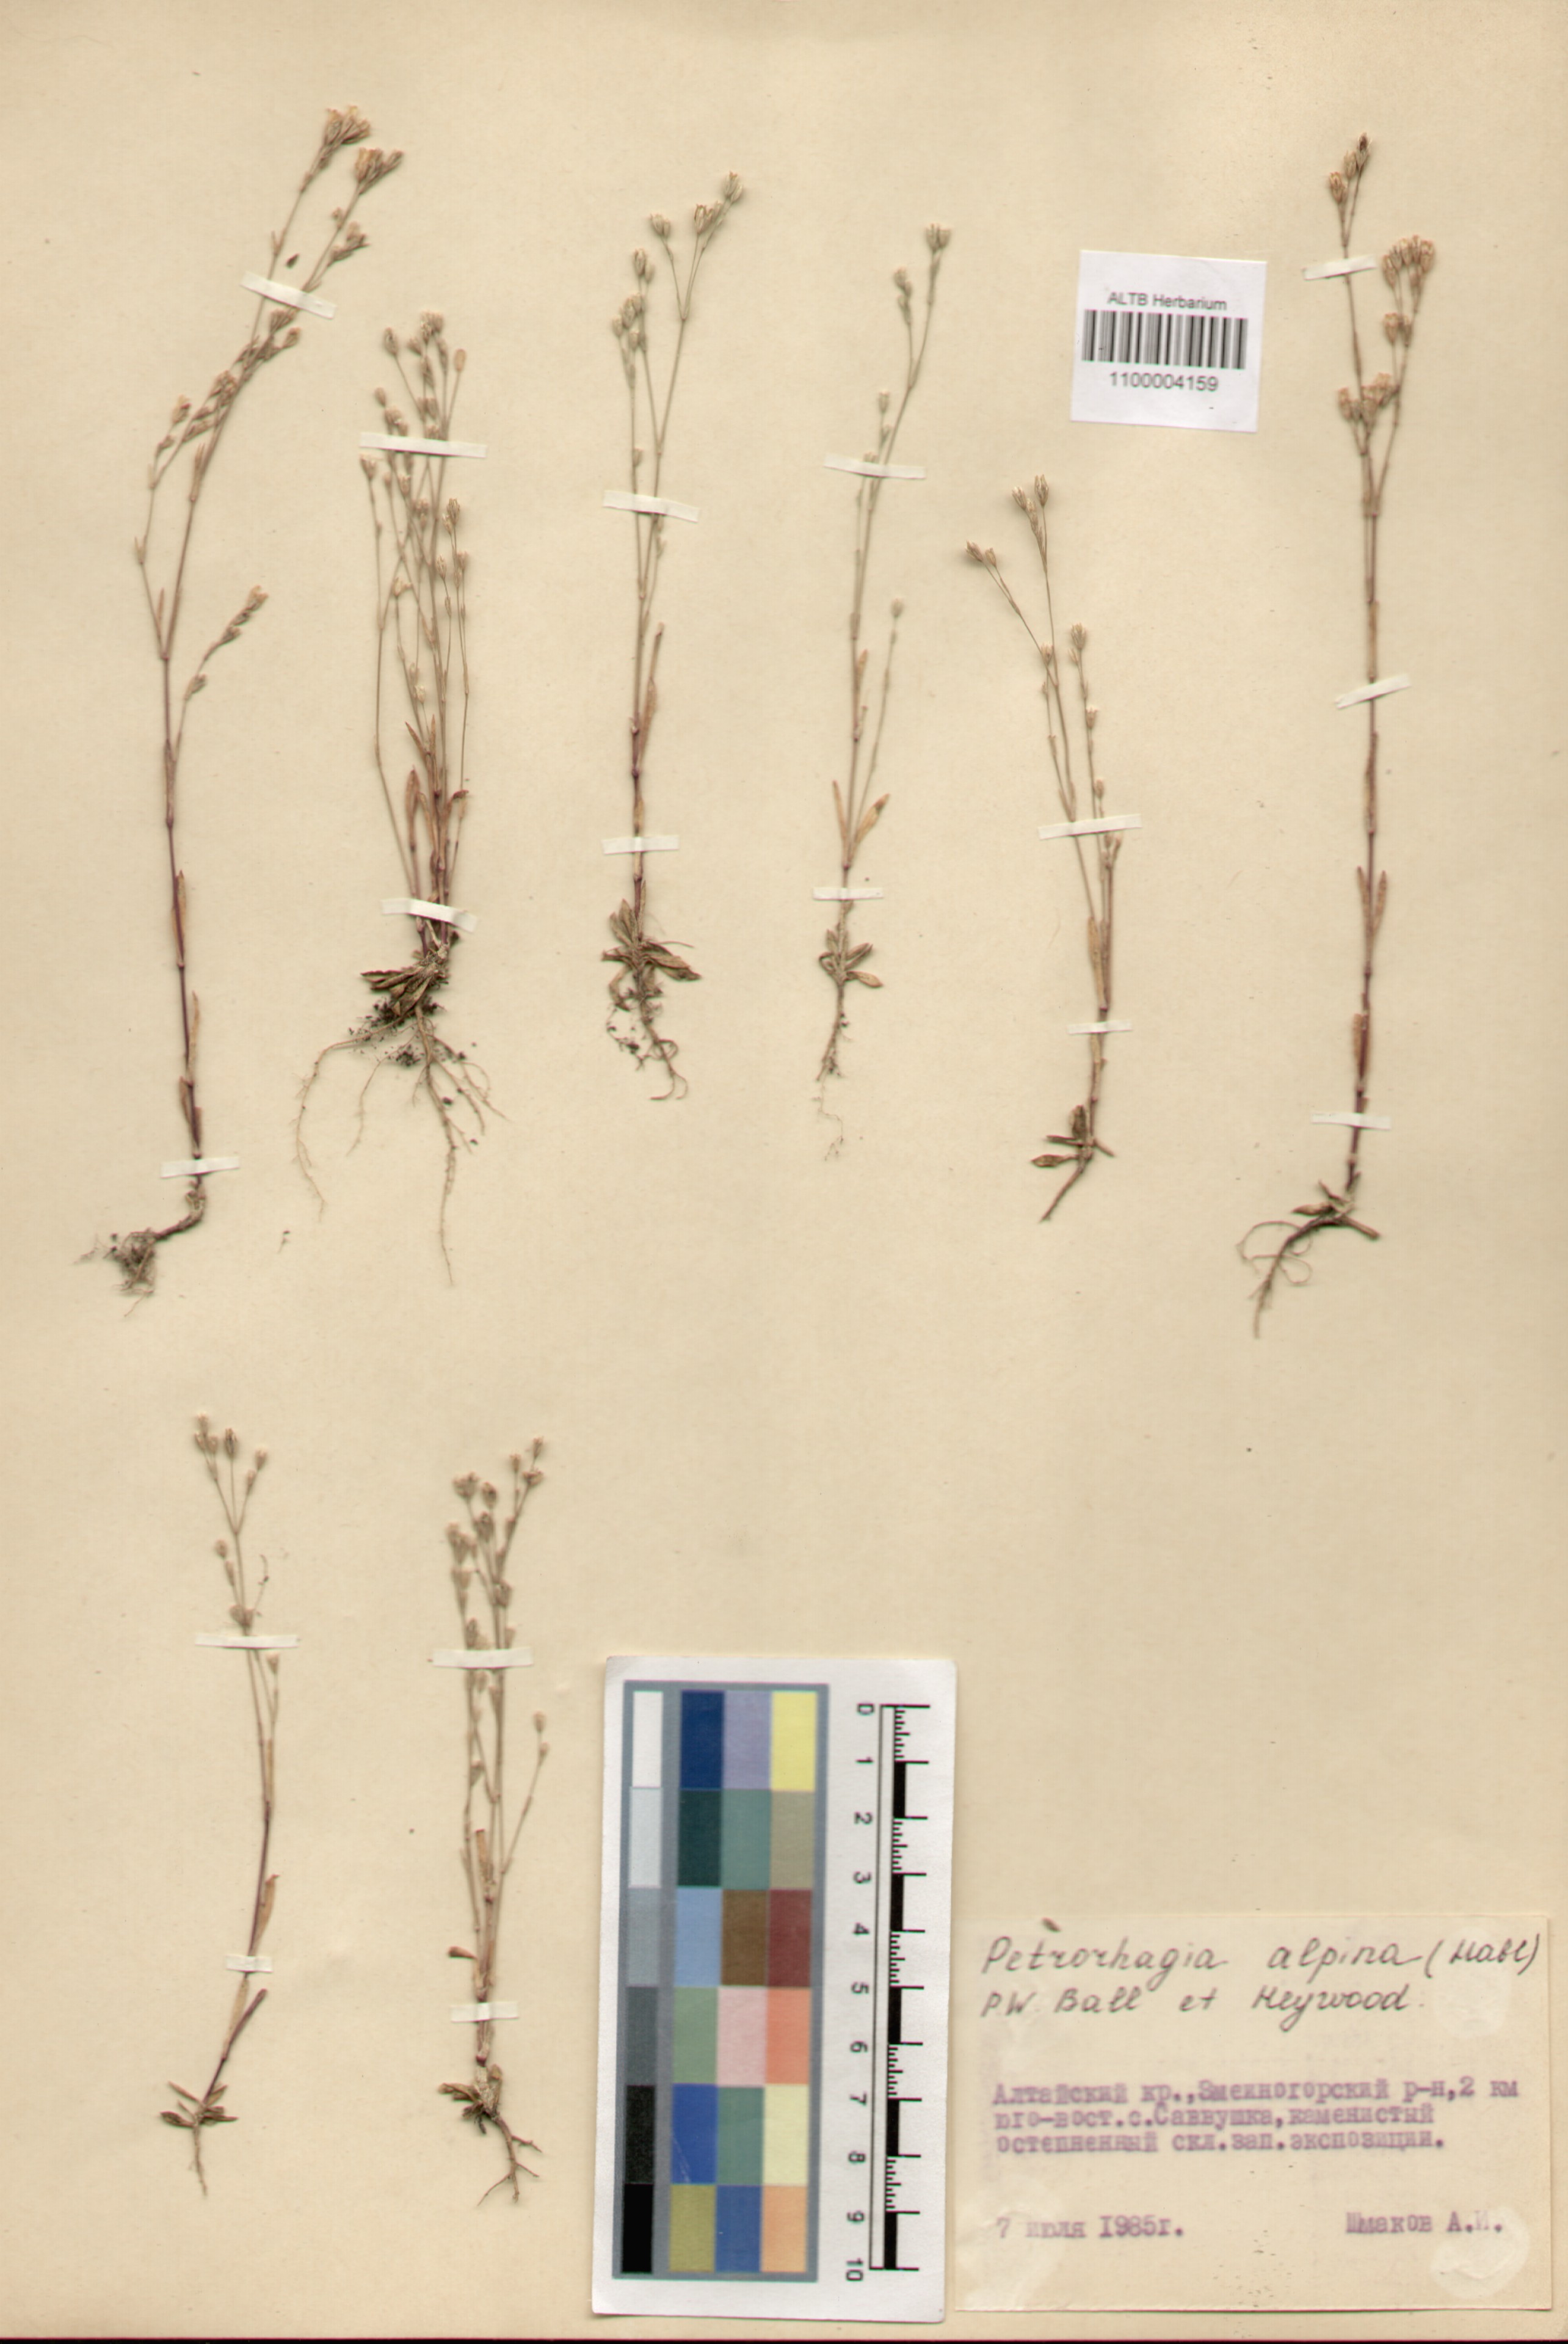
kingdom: Plantae
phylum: Tracheophyta
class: Magnoliopsida
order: Caryophyllales
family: Caryophyllaceae
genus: Petrorhagia
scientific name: Petrorhagia alpina
